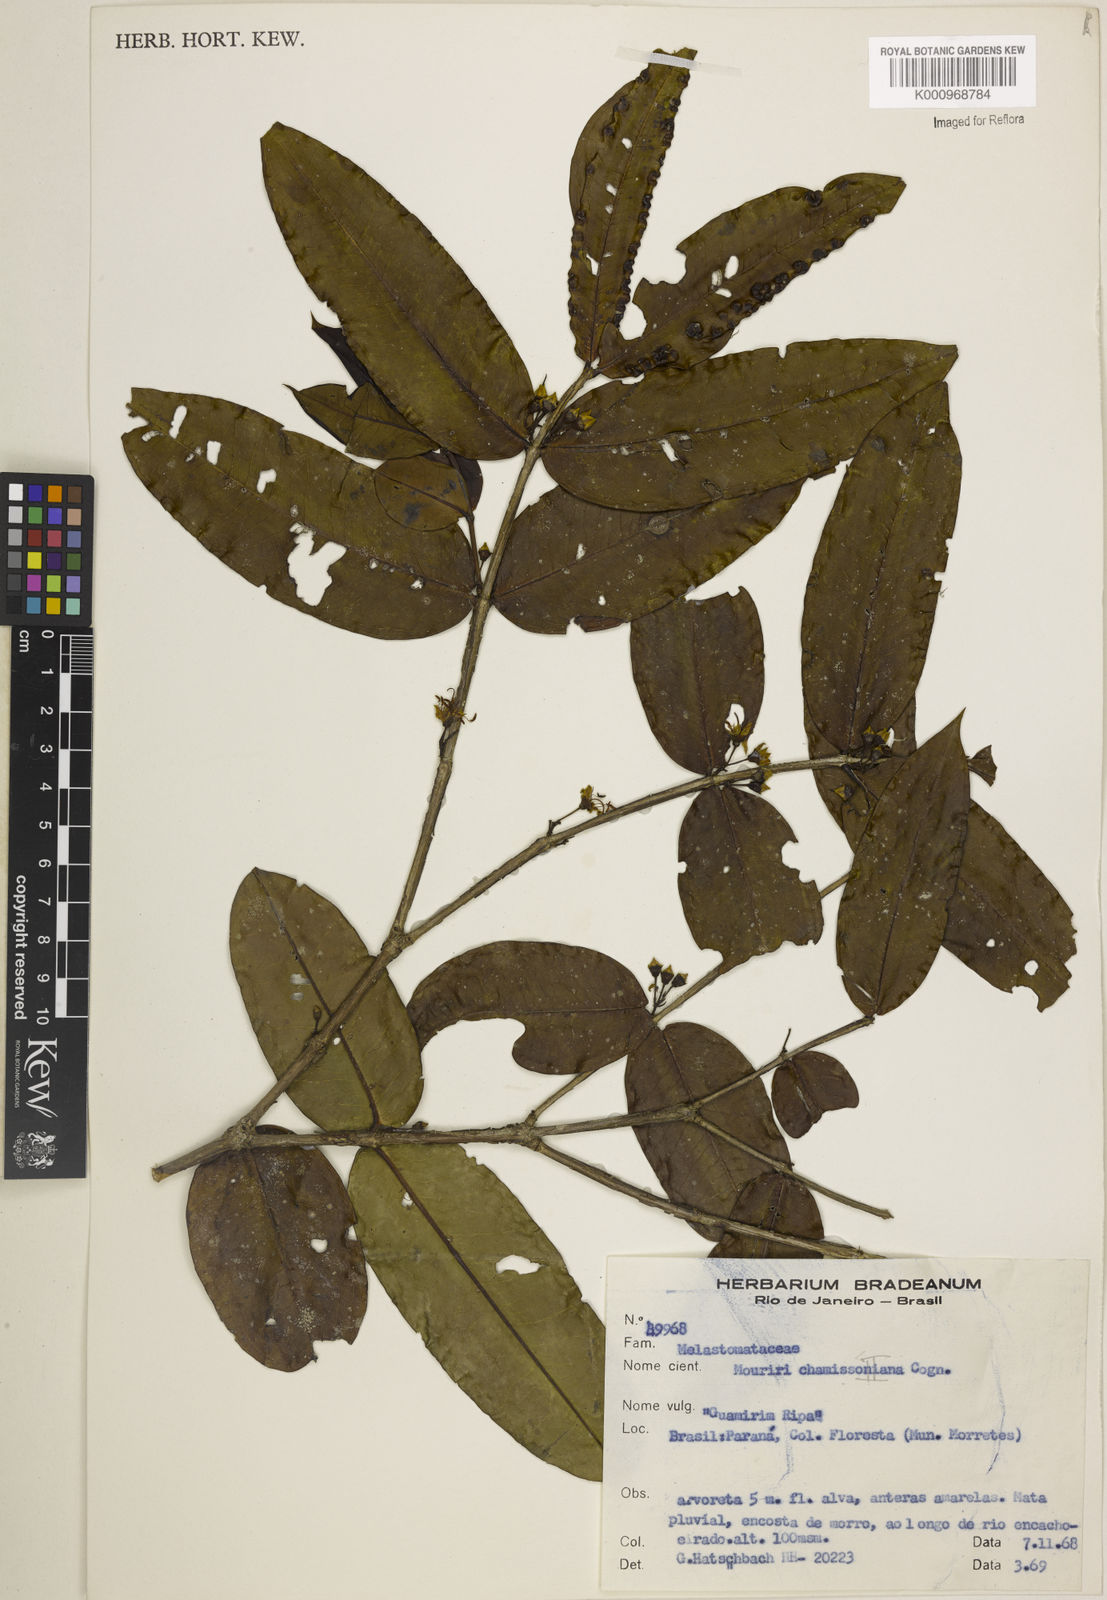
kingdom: Plantae
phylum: Tracheophyta
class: Magnoliopsida
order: Myrtales
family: Melastomataceae
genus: Mouriri
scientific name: Mouriri chamissoana
